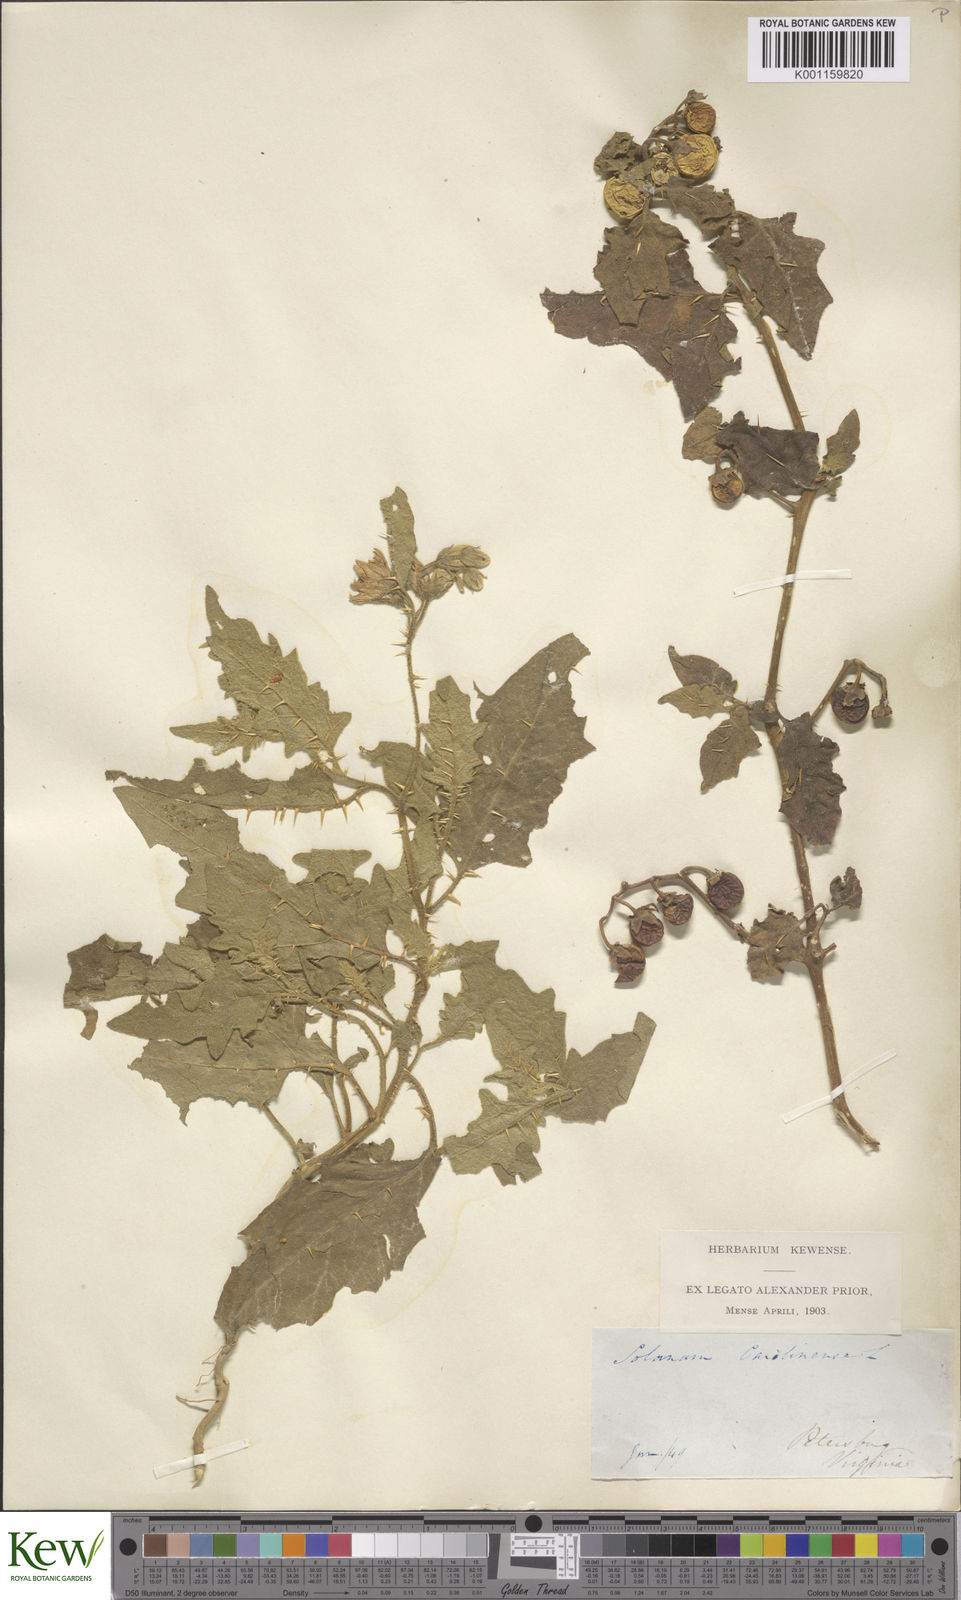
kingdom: Plantae
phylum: Tracheophyta
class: Magnoliopsida
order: Solanales
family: Solanaceae
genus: Solanum
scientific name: Solanum carolinense
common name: Horse-nettle
